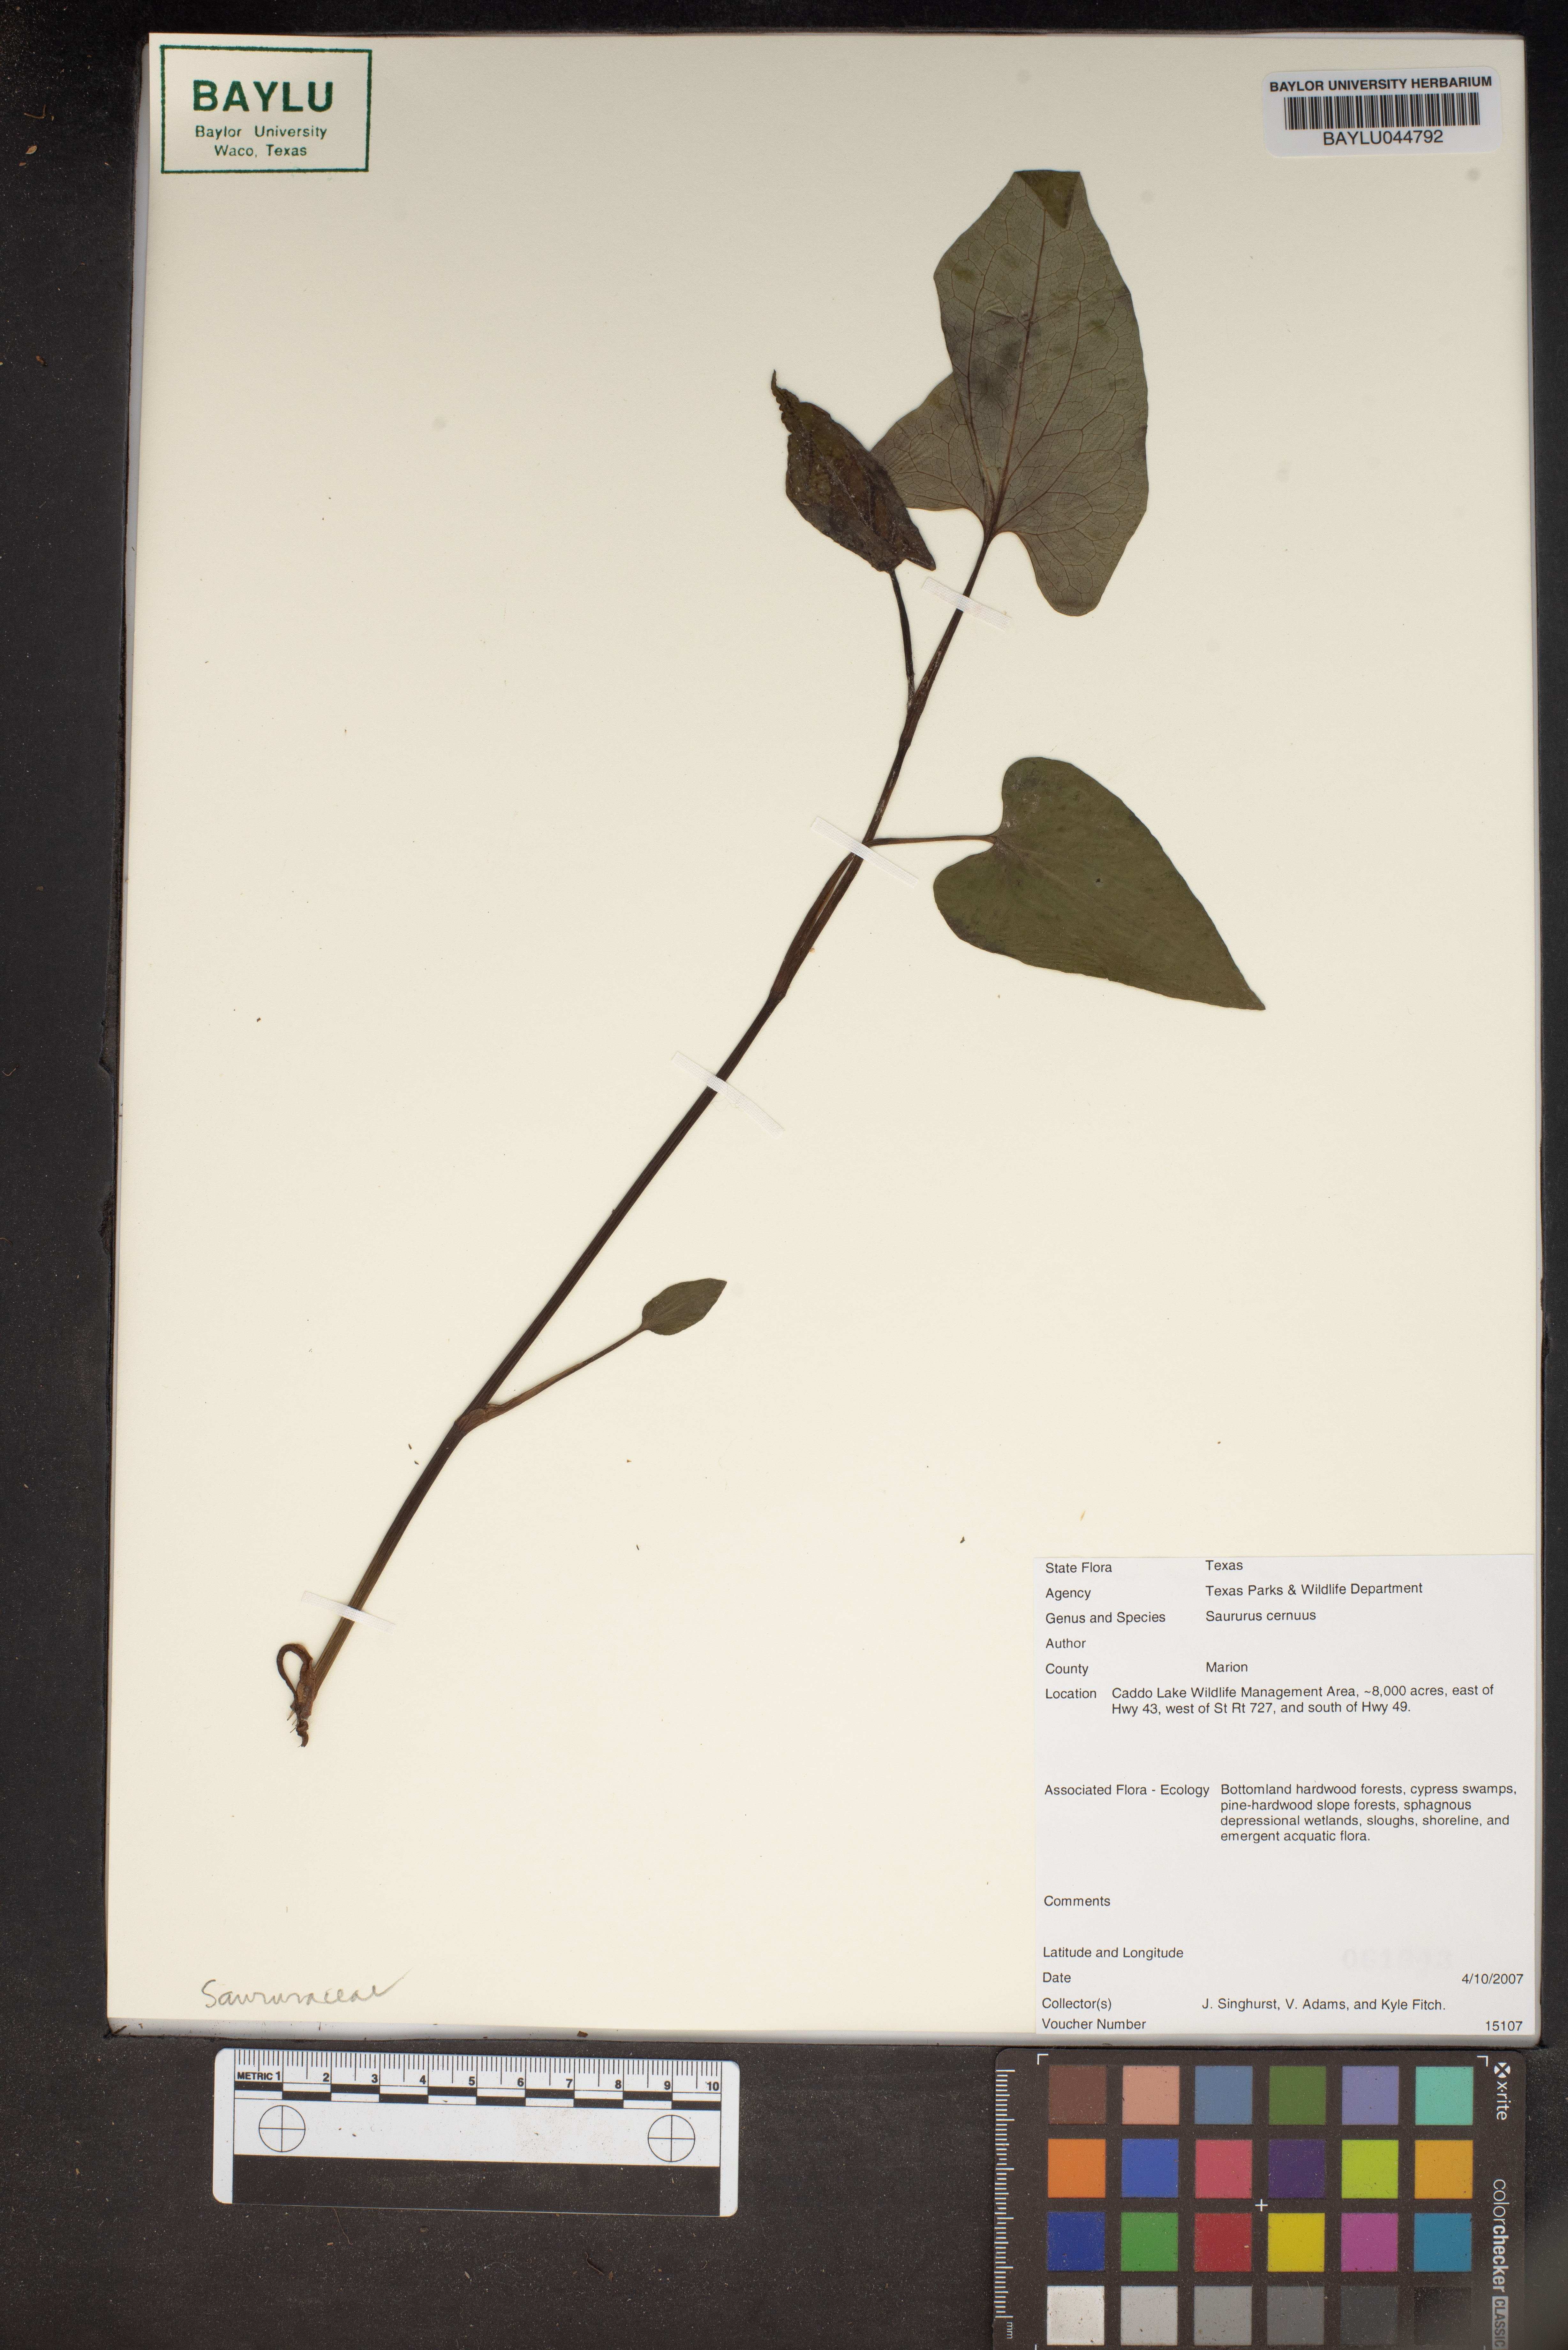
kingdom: Plantae
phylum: Tracheophyta
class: Magnoliopsida
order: Piperales
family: Saururaceae
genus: Saururus
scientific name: Saururus cernuus
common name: Lizard's-tail
